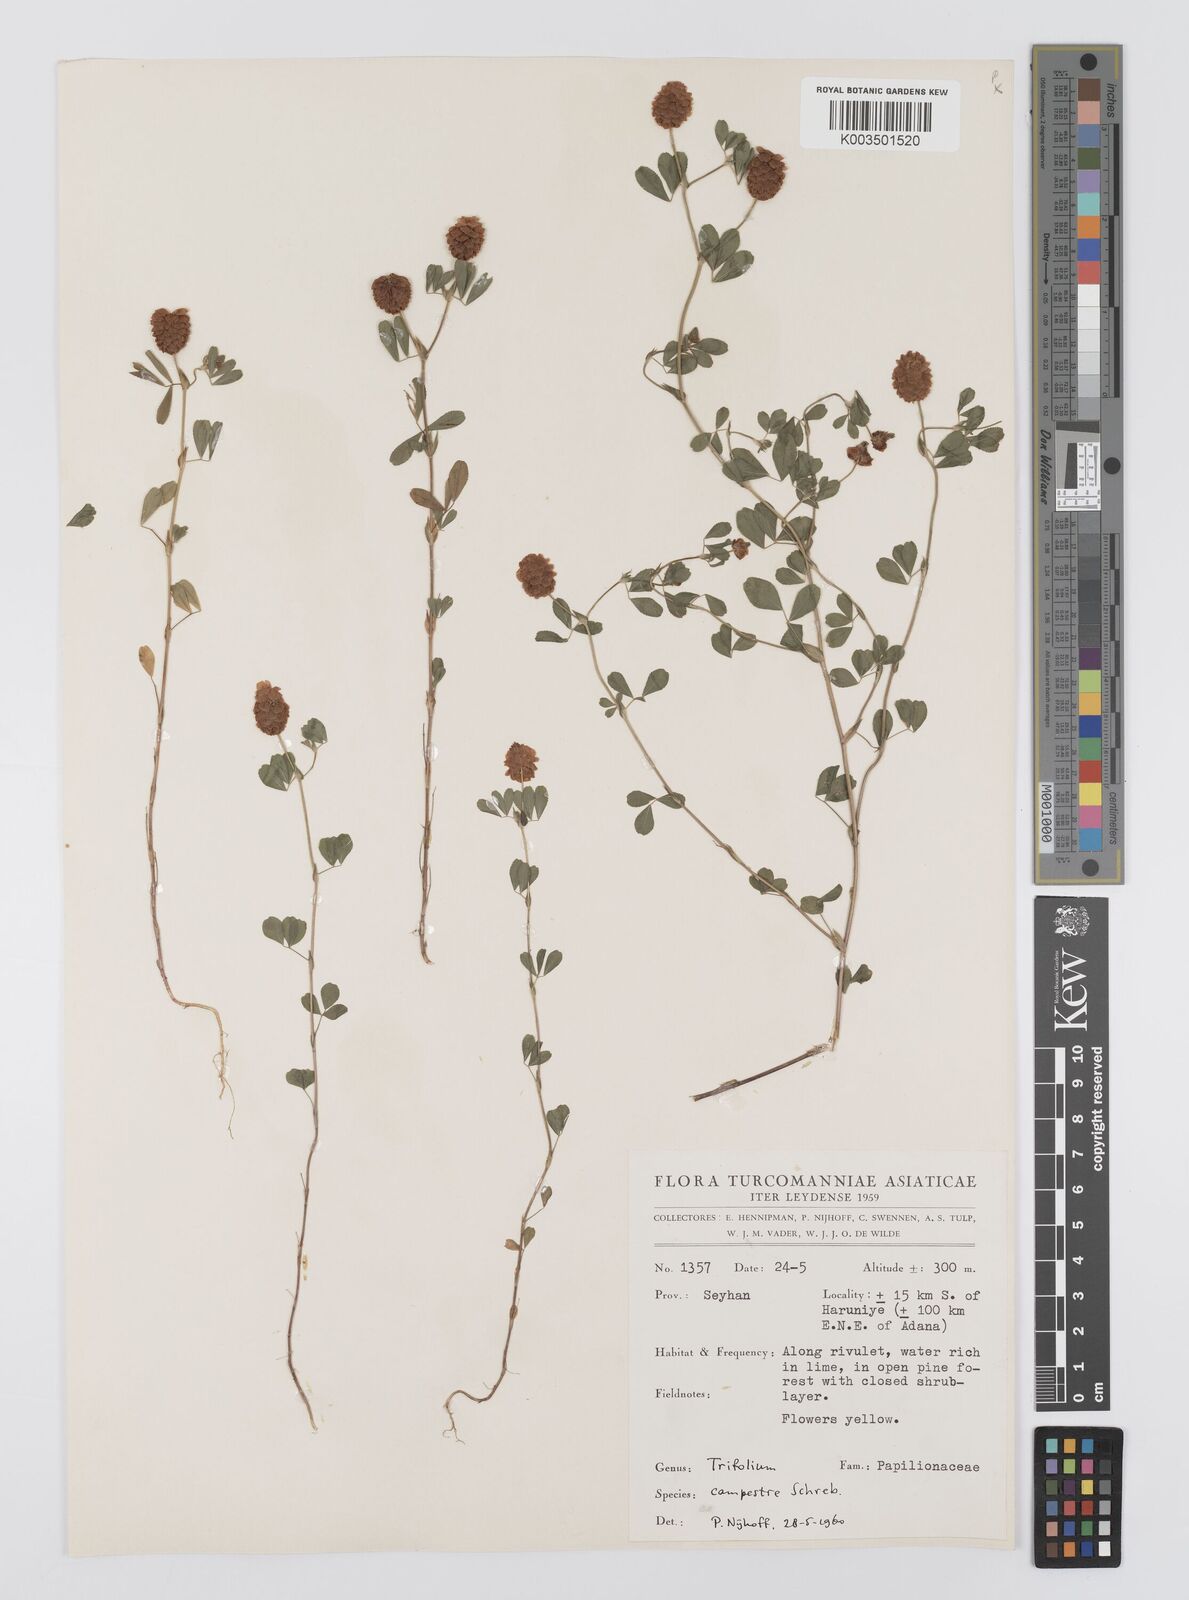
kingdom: Plantae
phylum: Tracheophyta
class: Magnoliopsida
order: Fabales
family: Fabaceae
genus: Trifolium
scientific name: Trifolium campestre
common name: Field clover
